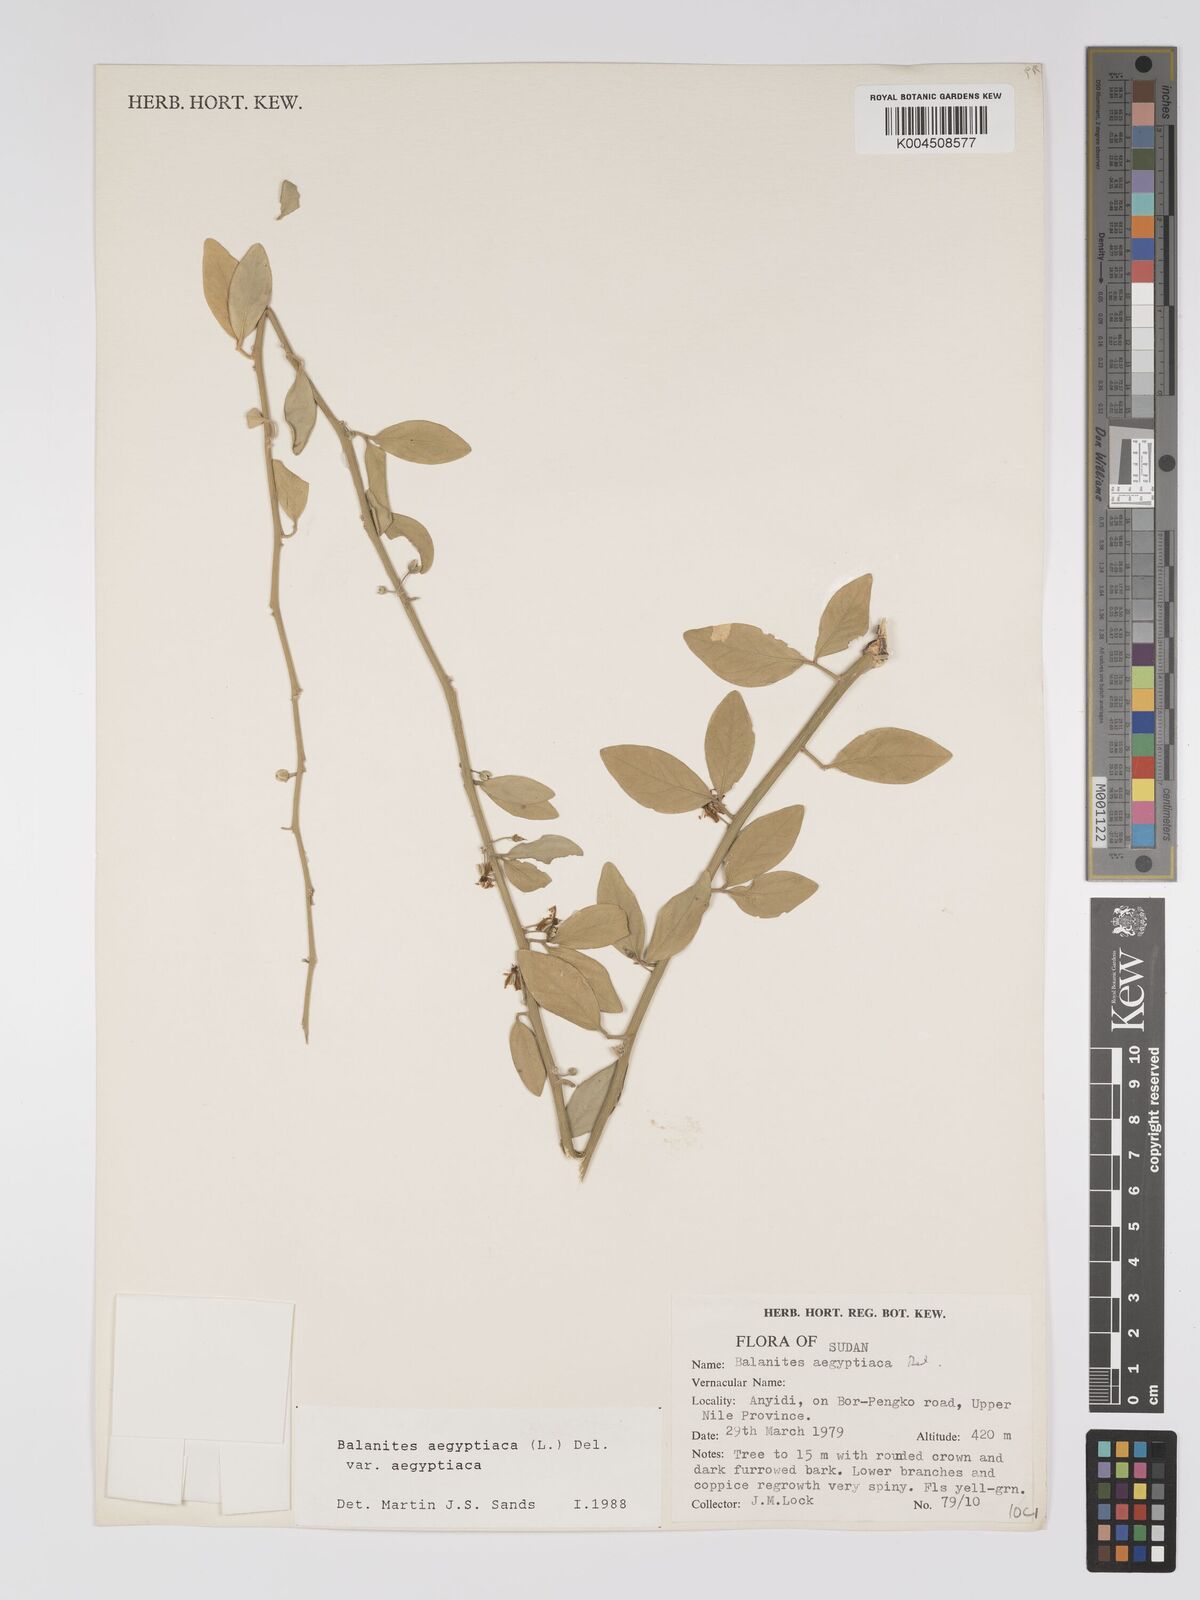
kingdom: Plantae
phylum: Tracheophyta
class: Magnoliopsida
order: Zygophyllales
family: Zygophyllaceae
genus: Balanites
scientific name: Balanites
